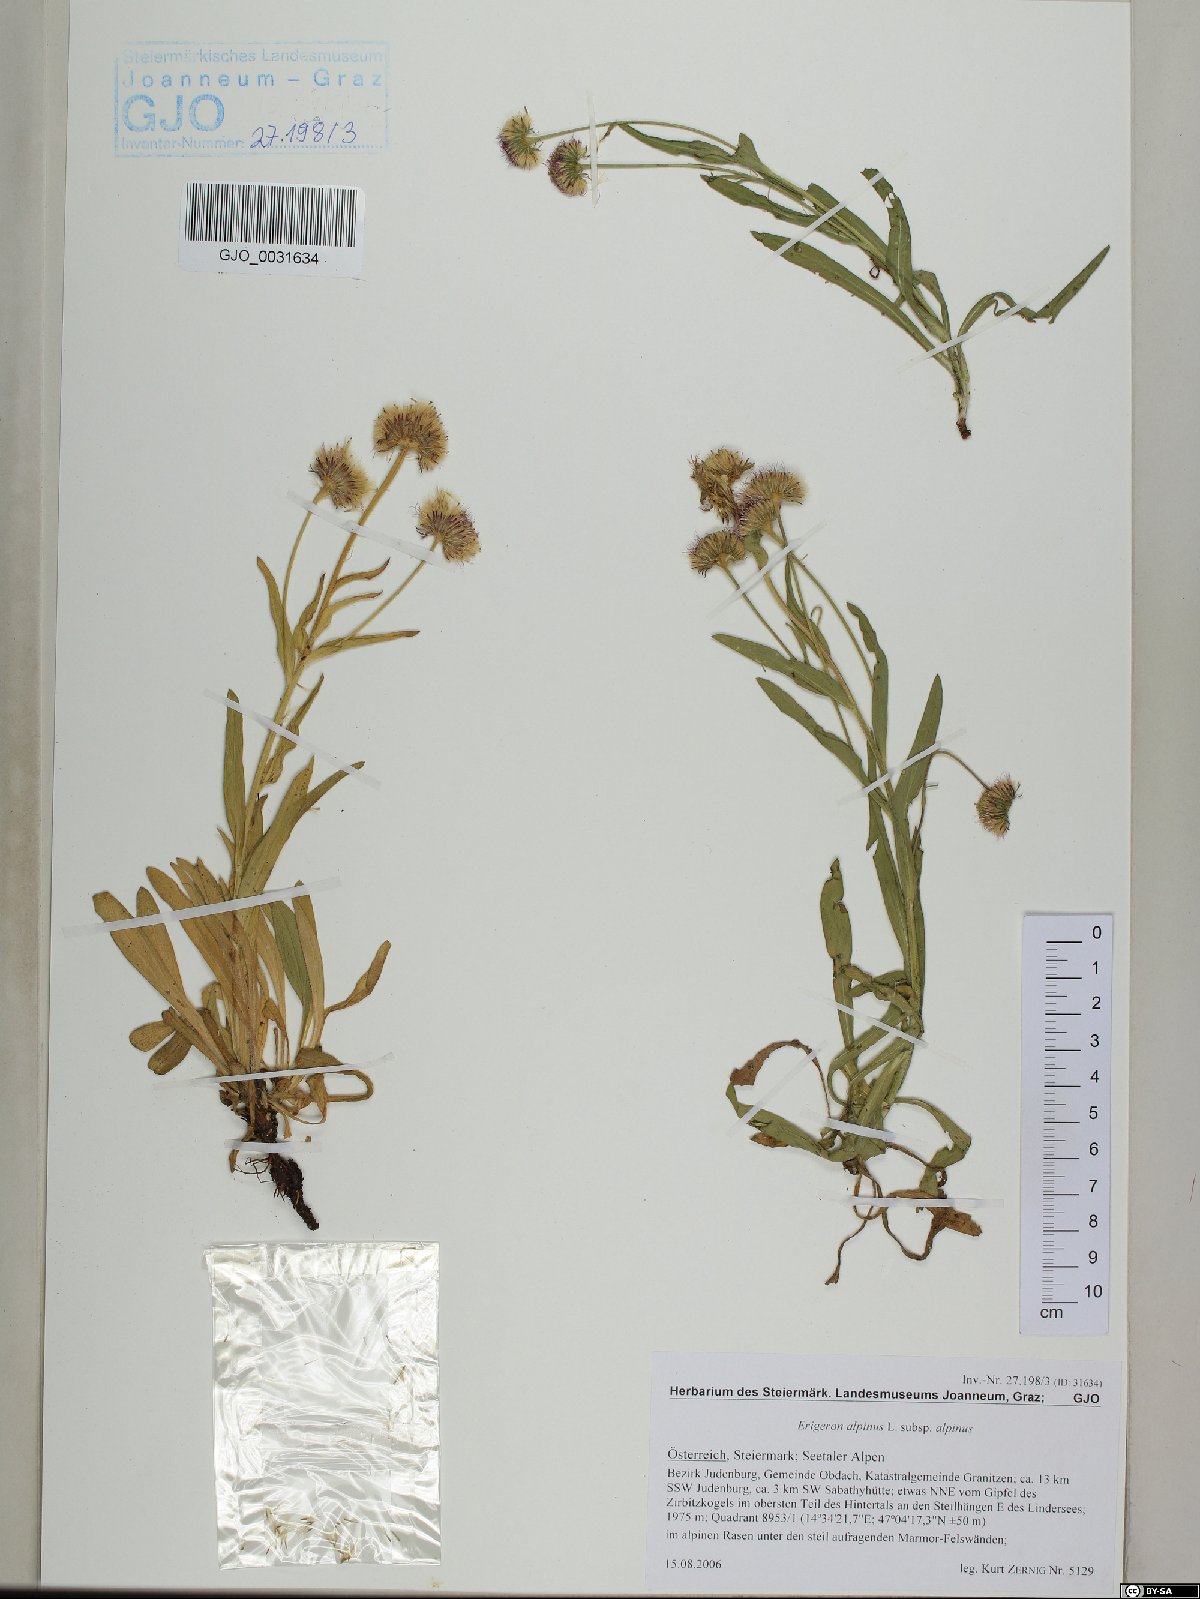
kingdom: Plantae
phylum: Tracheophyta
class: Magnoliopsida
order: Asterales
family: Asteraceae
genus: Erigeron
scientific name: Erigeron alpinus
